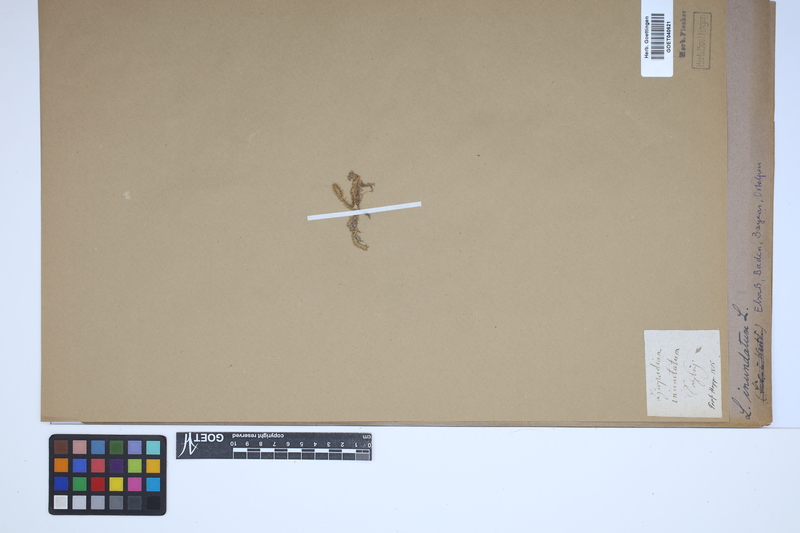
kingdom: Plantae
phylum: Tracheophyta
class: Lycopodiopsida
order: Lycopodiales
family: Lycopodiaceae
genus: Lycopodiella
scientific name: Lycopodiella inundata
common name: Marsh clubmoss
